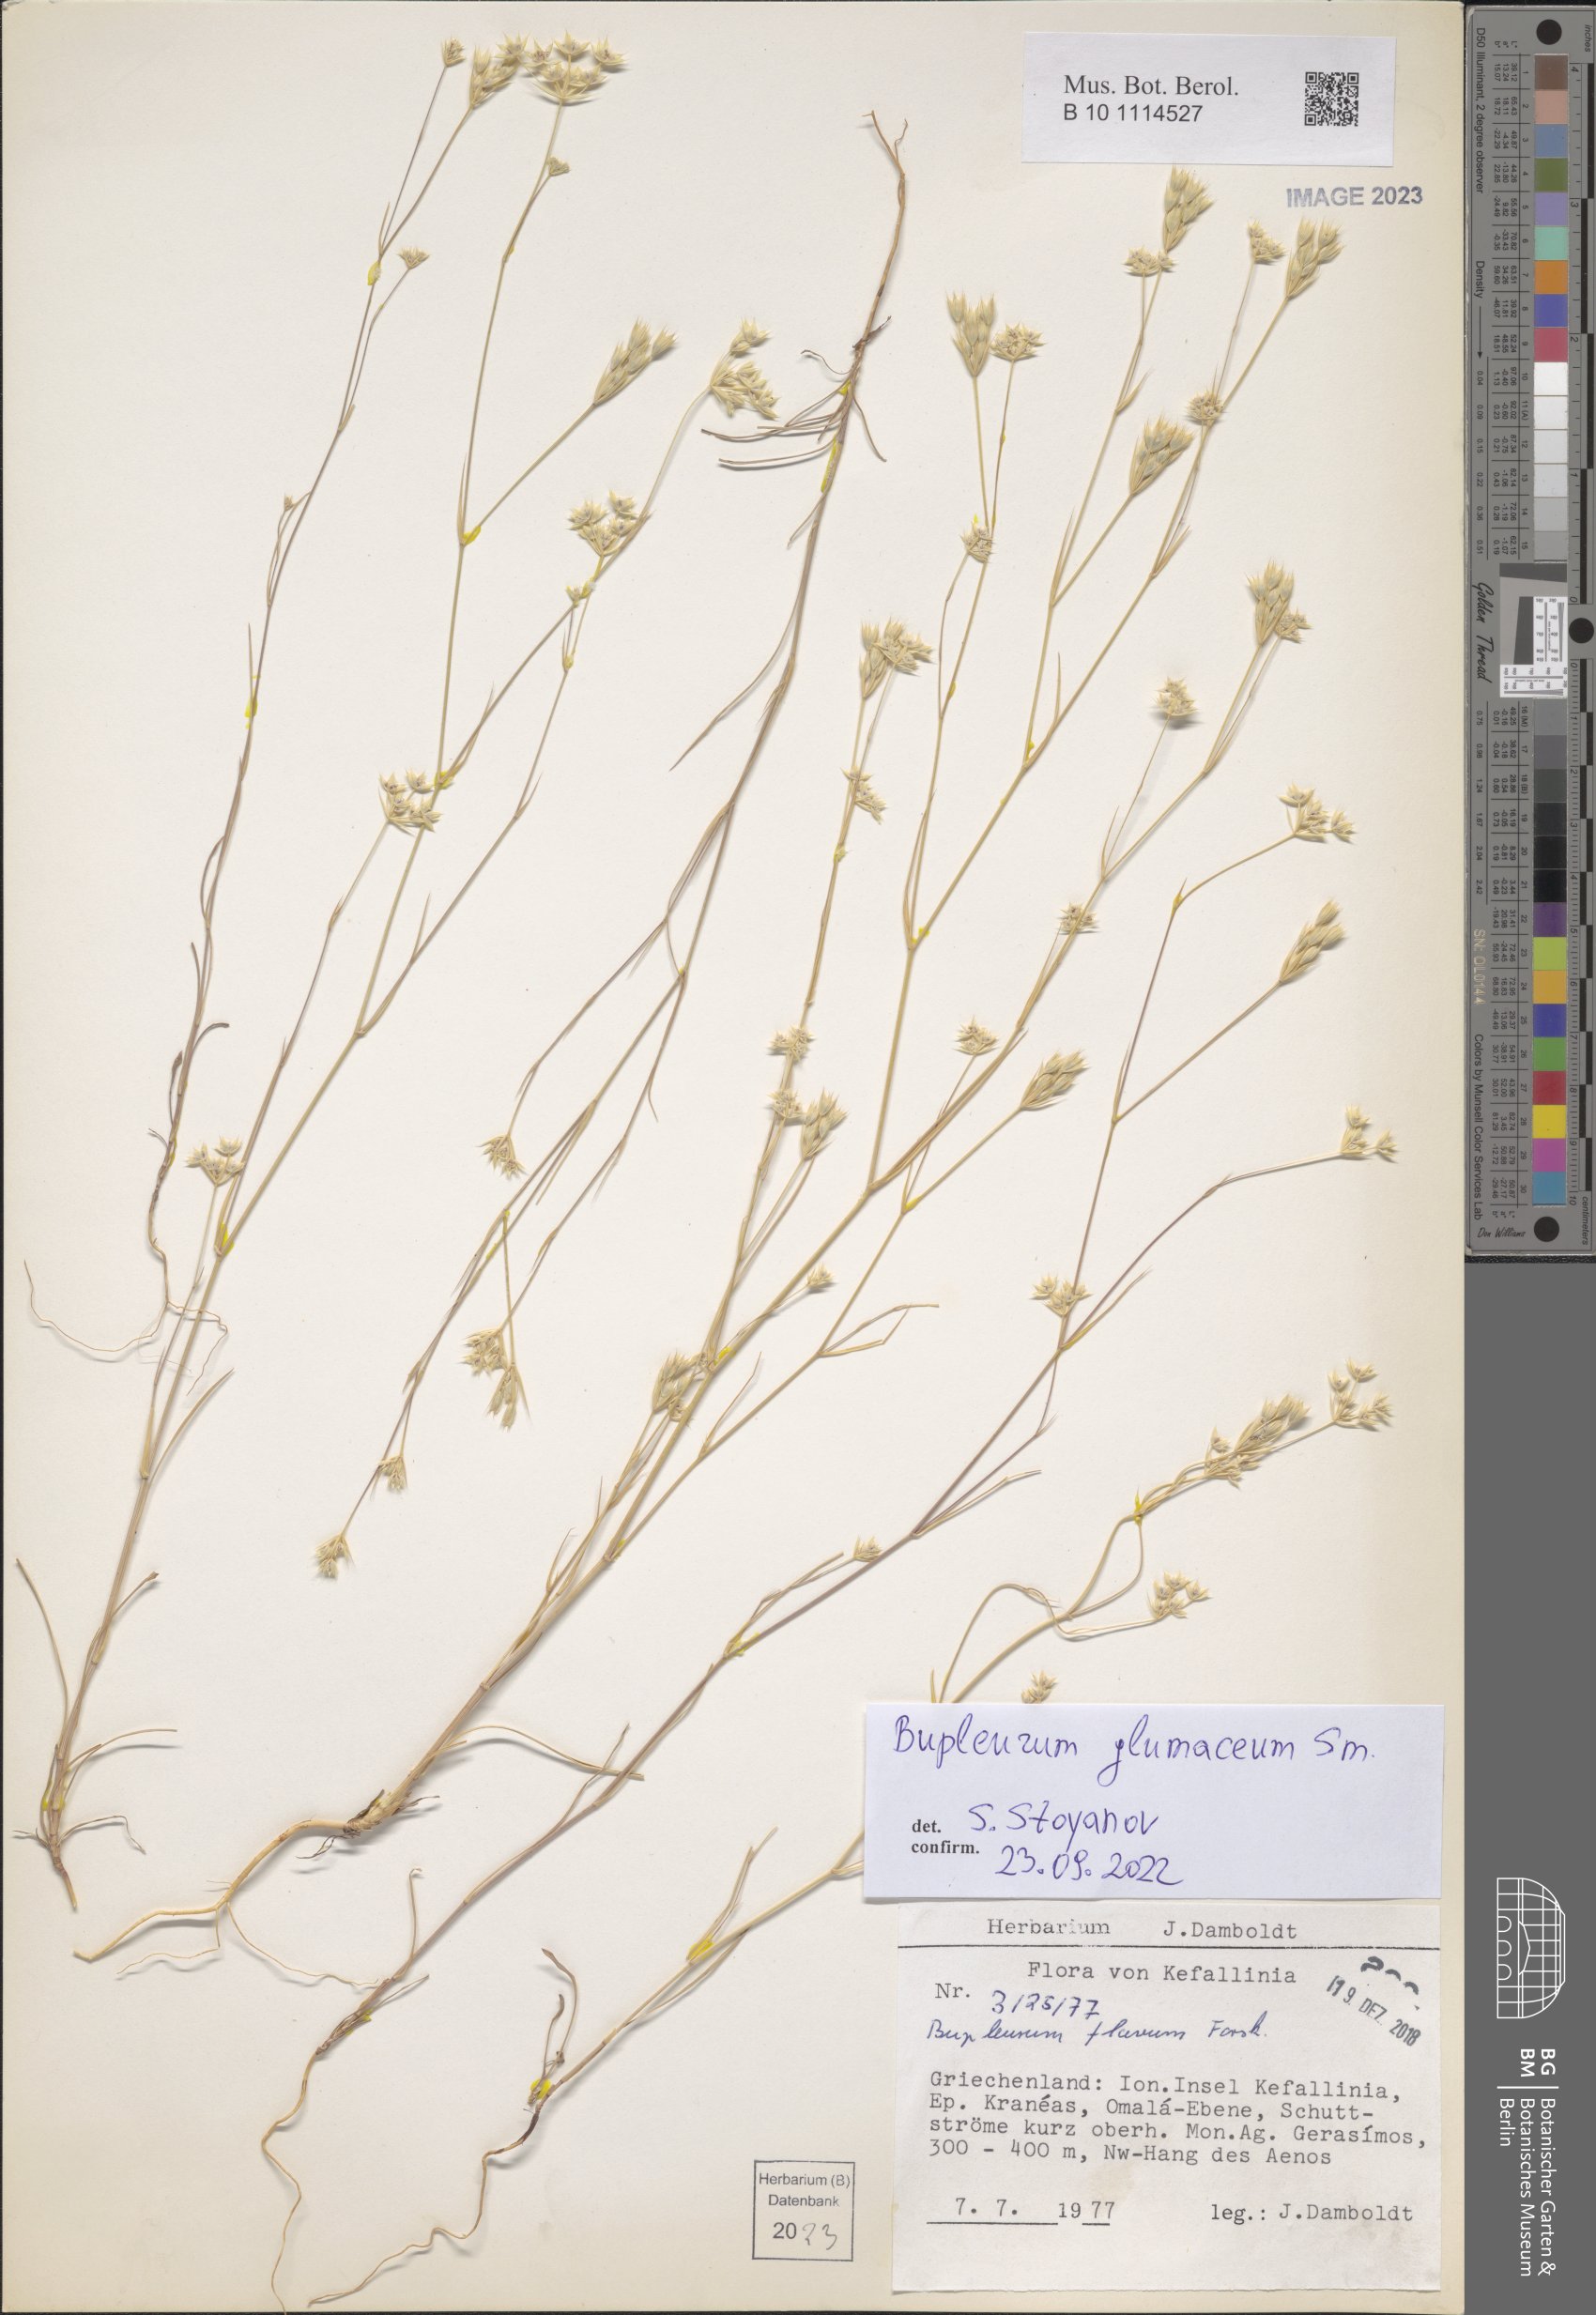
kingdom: Plantae
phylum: Tracheophyta
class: Magnoliopsida
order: Apiales
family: Apiaceae
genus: Bupleurum
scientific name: Bupleurum glumaceum
